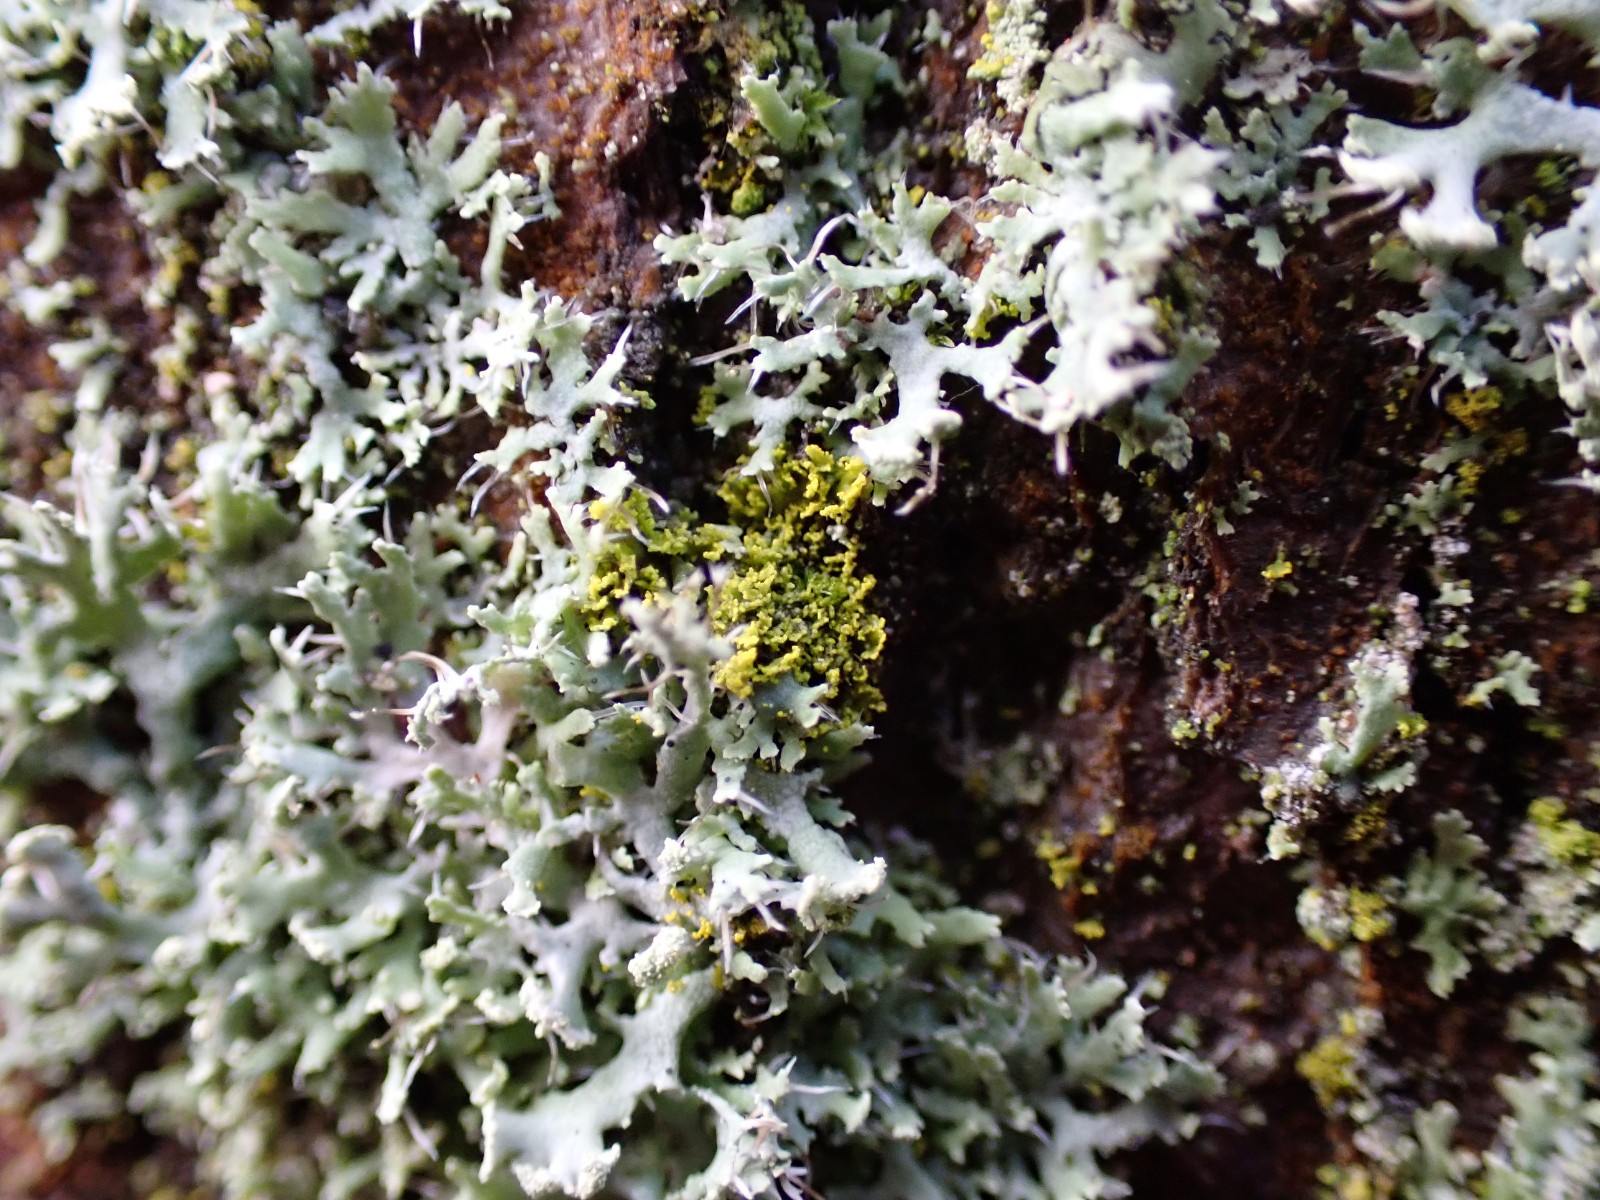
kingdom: Fungi
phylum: Ascomycota
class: Candelariomycetes
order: Candelariales
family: Candelariaceae
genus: Candelaria
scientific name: Candelaria pacifica
